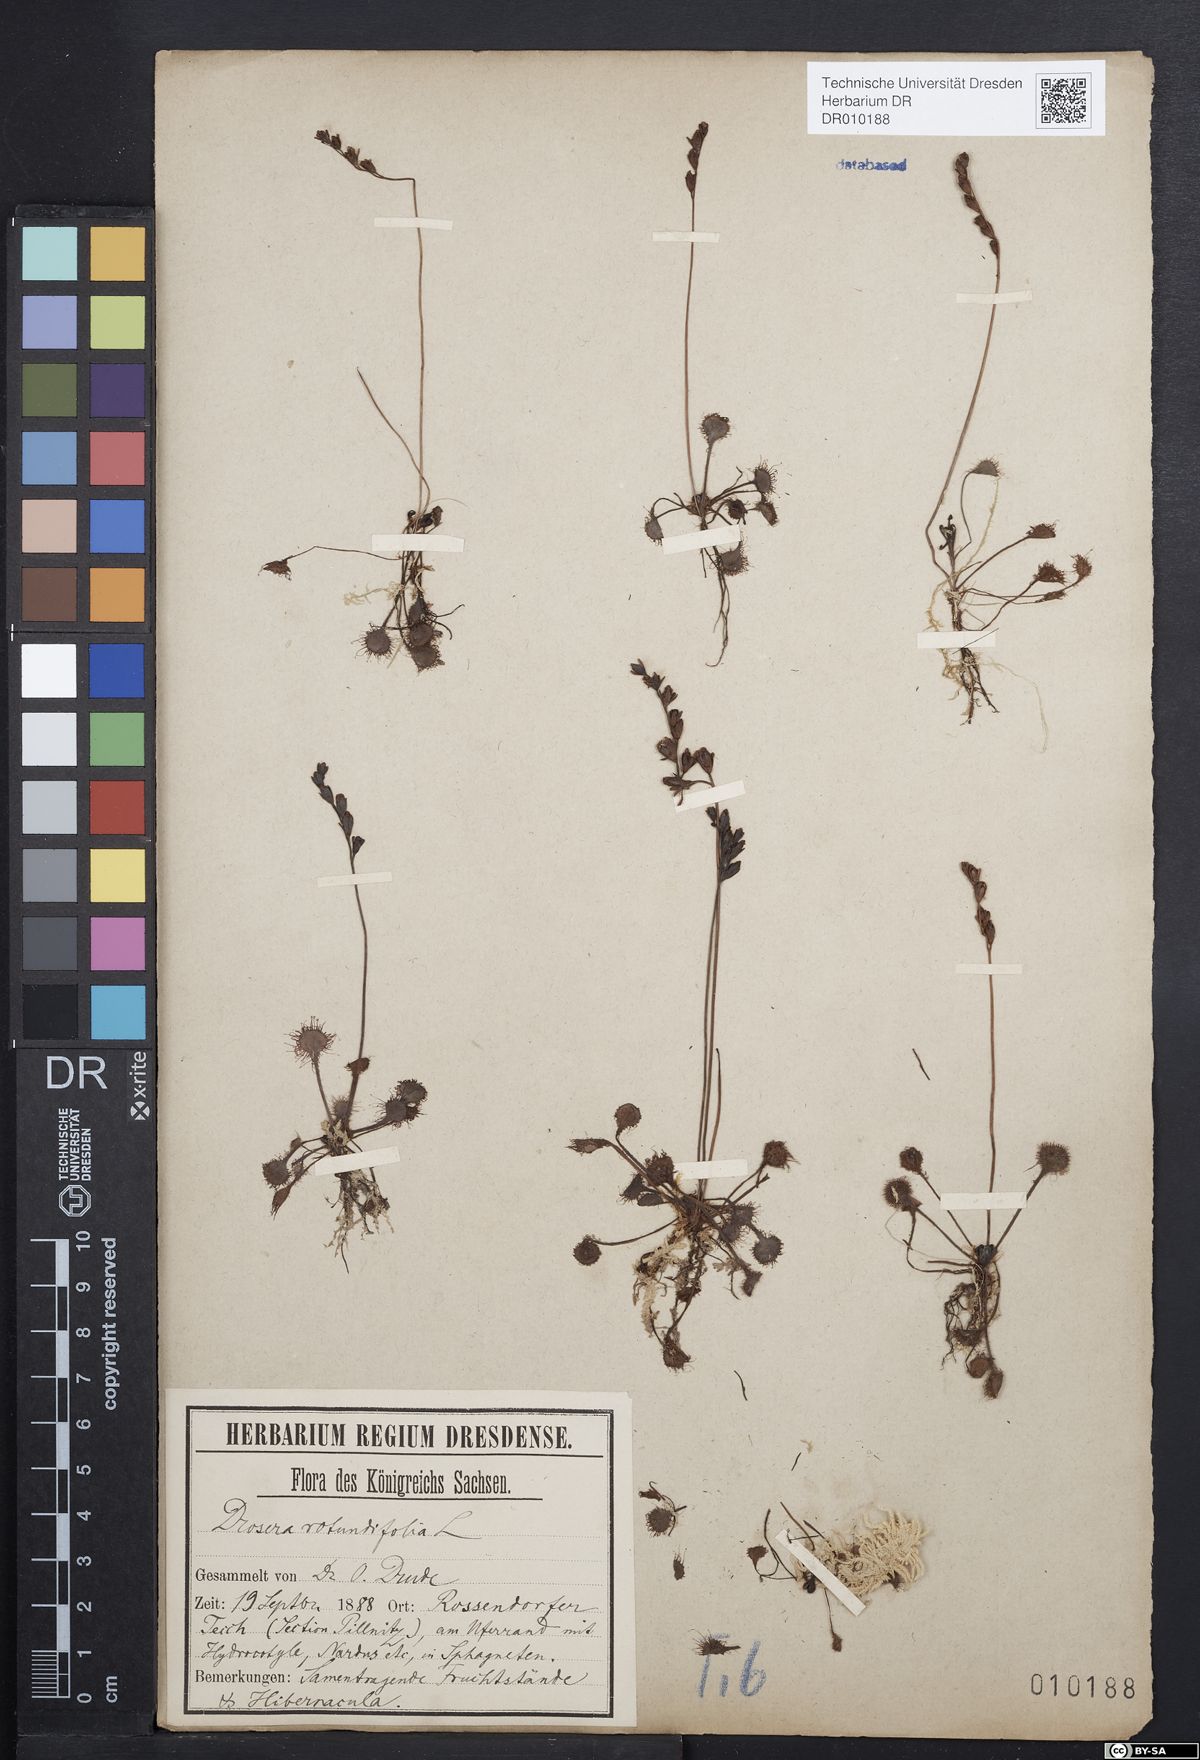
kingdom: Plantae
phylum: Tracheophyta
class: Magnoliopsida
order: Caryophyllales
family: Droseraceae
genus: Drosera
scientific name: Drosera rotundifolia
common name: Round-leaved sundew
